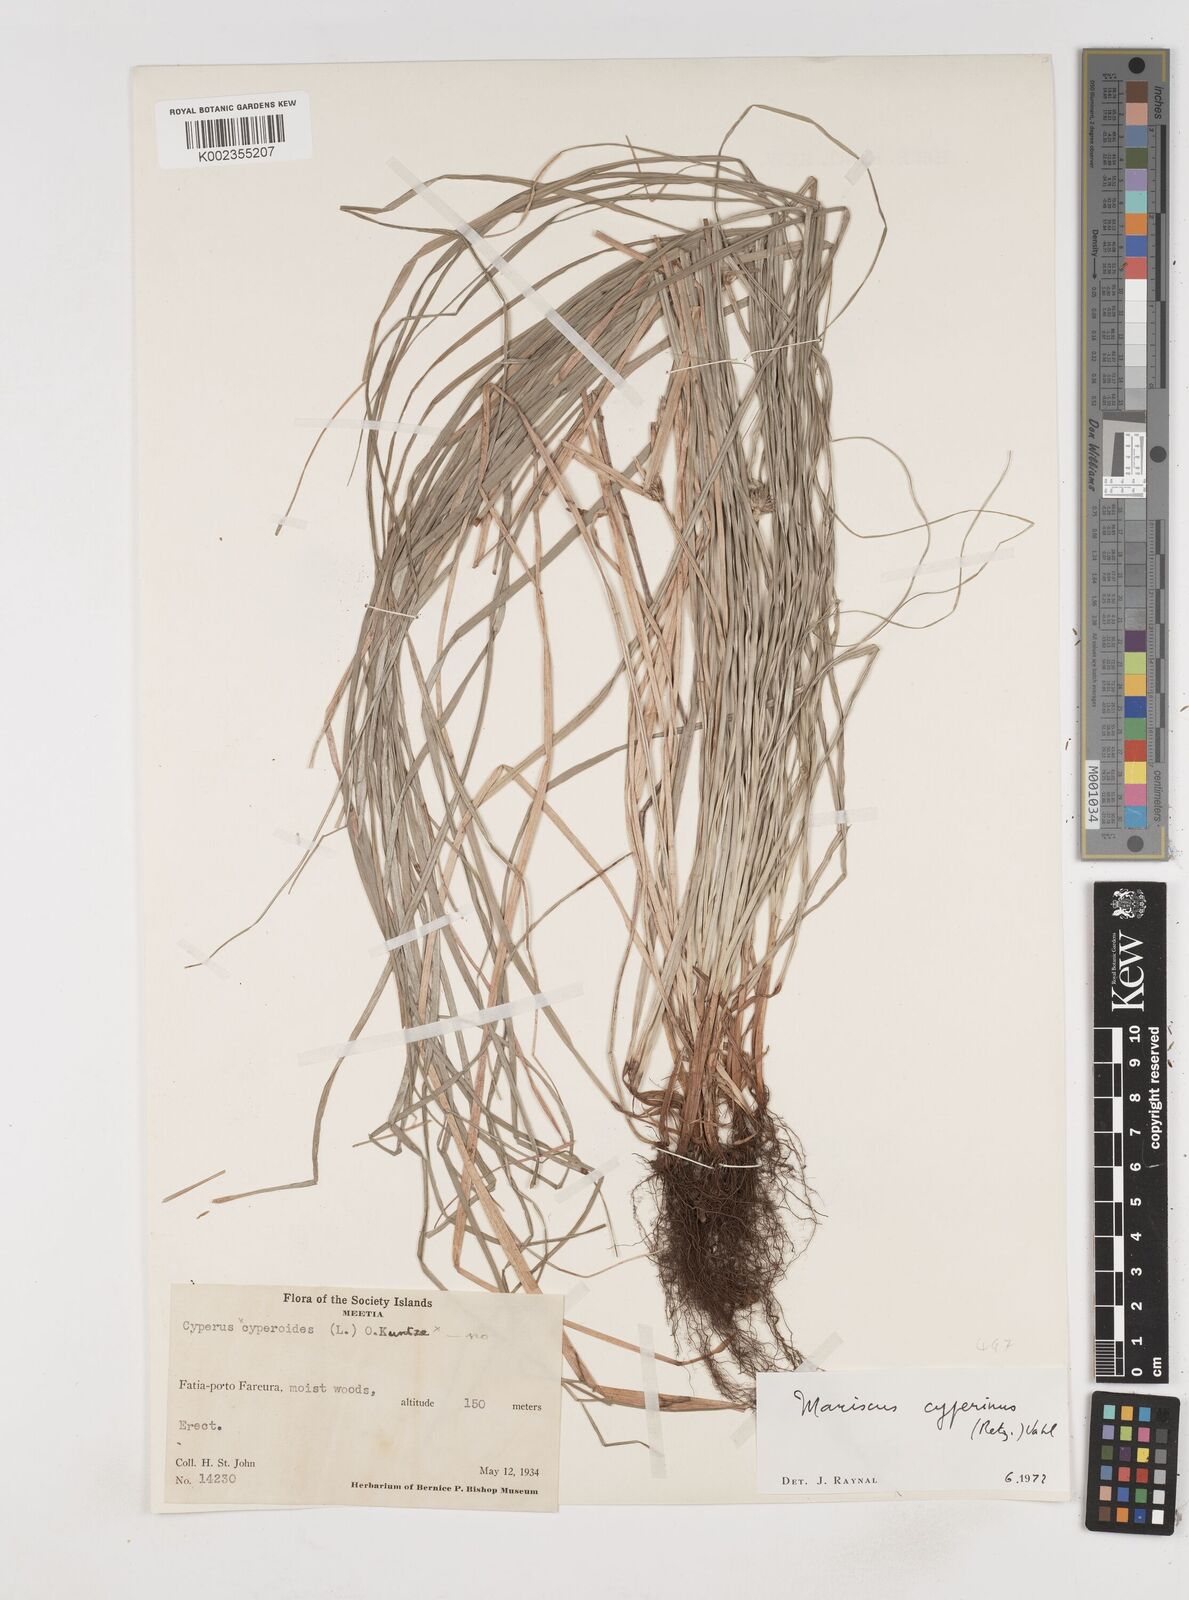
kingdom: Plantae
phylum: Tracheophyta
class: Liliopsida
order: Poales
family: Cyperaceae
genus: Cyperus
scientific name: Cyperus cyperinus
